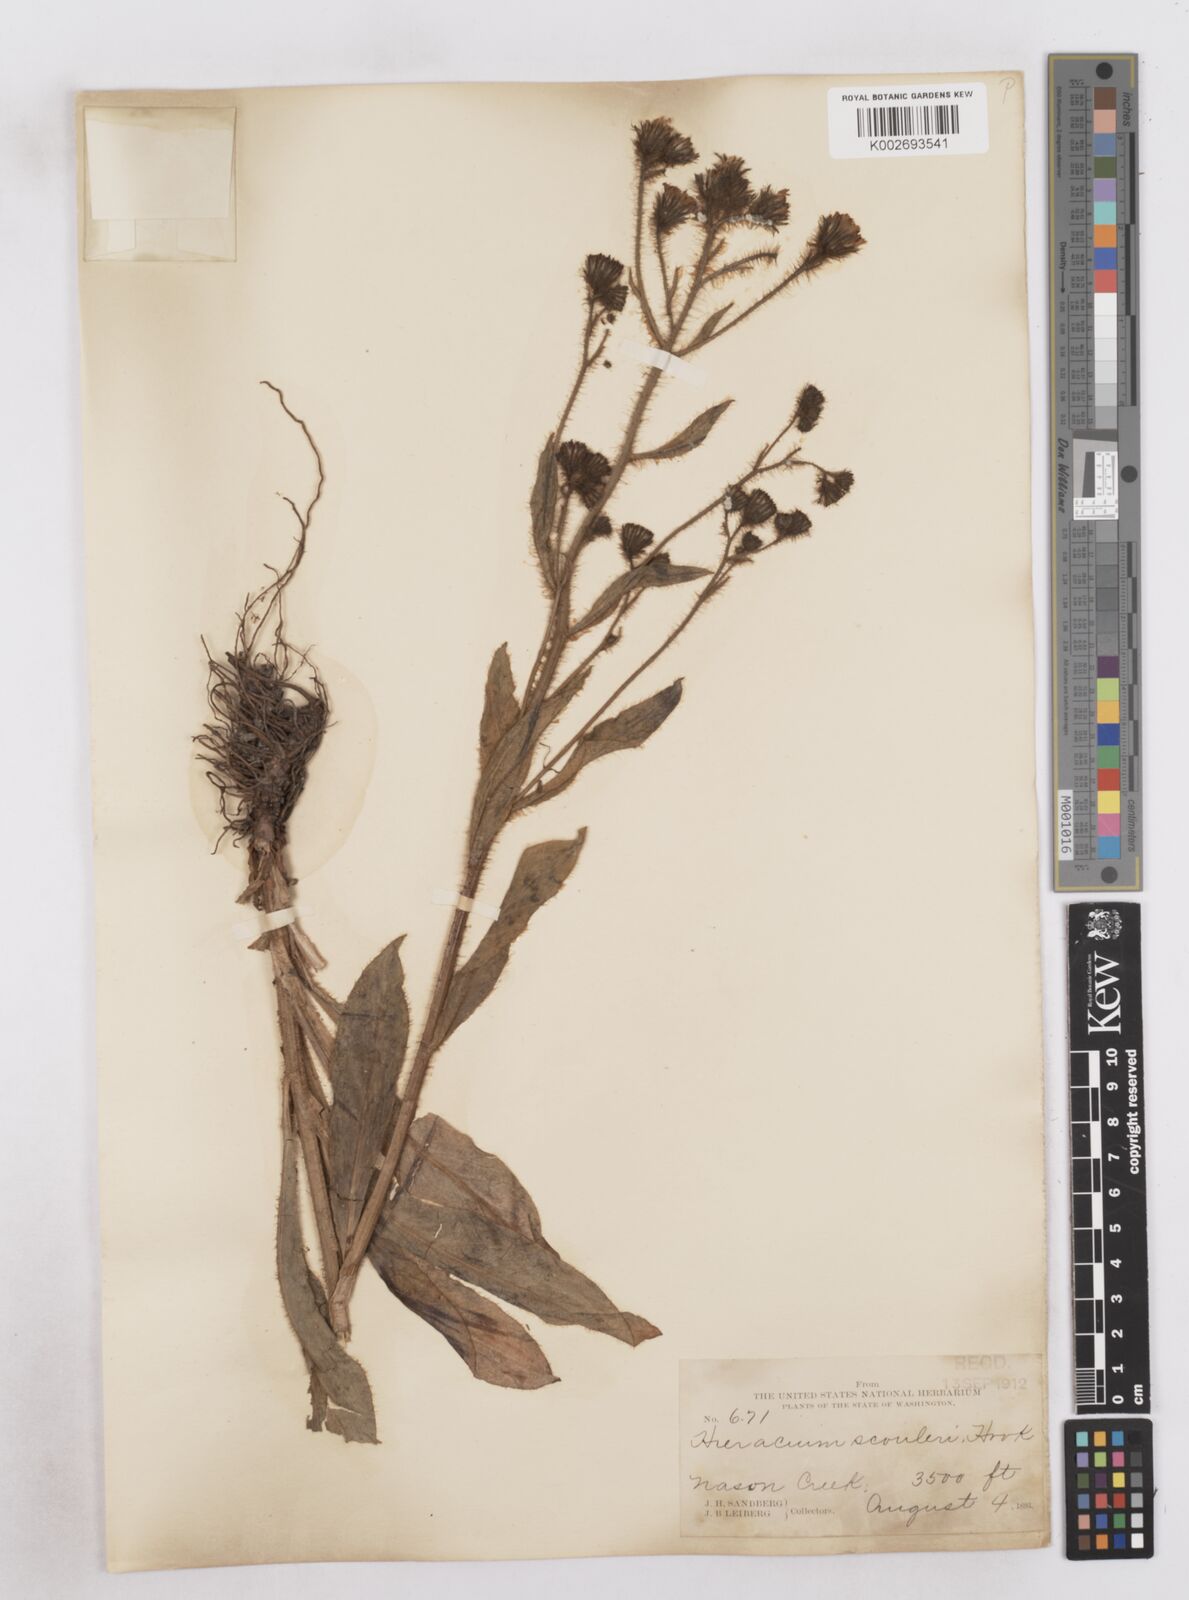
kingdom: Plantae
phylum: Tracheophyta
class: Magnoliopsida
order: Asterales
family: Asteraceae
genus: Hieracium
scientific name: Hieracium scouleri
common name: Hound's-tongue hawkweed
